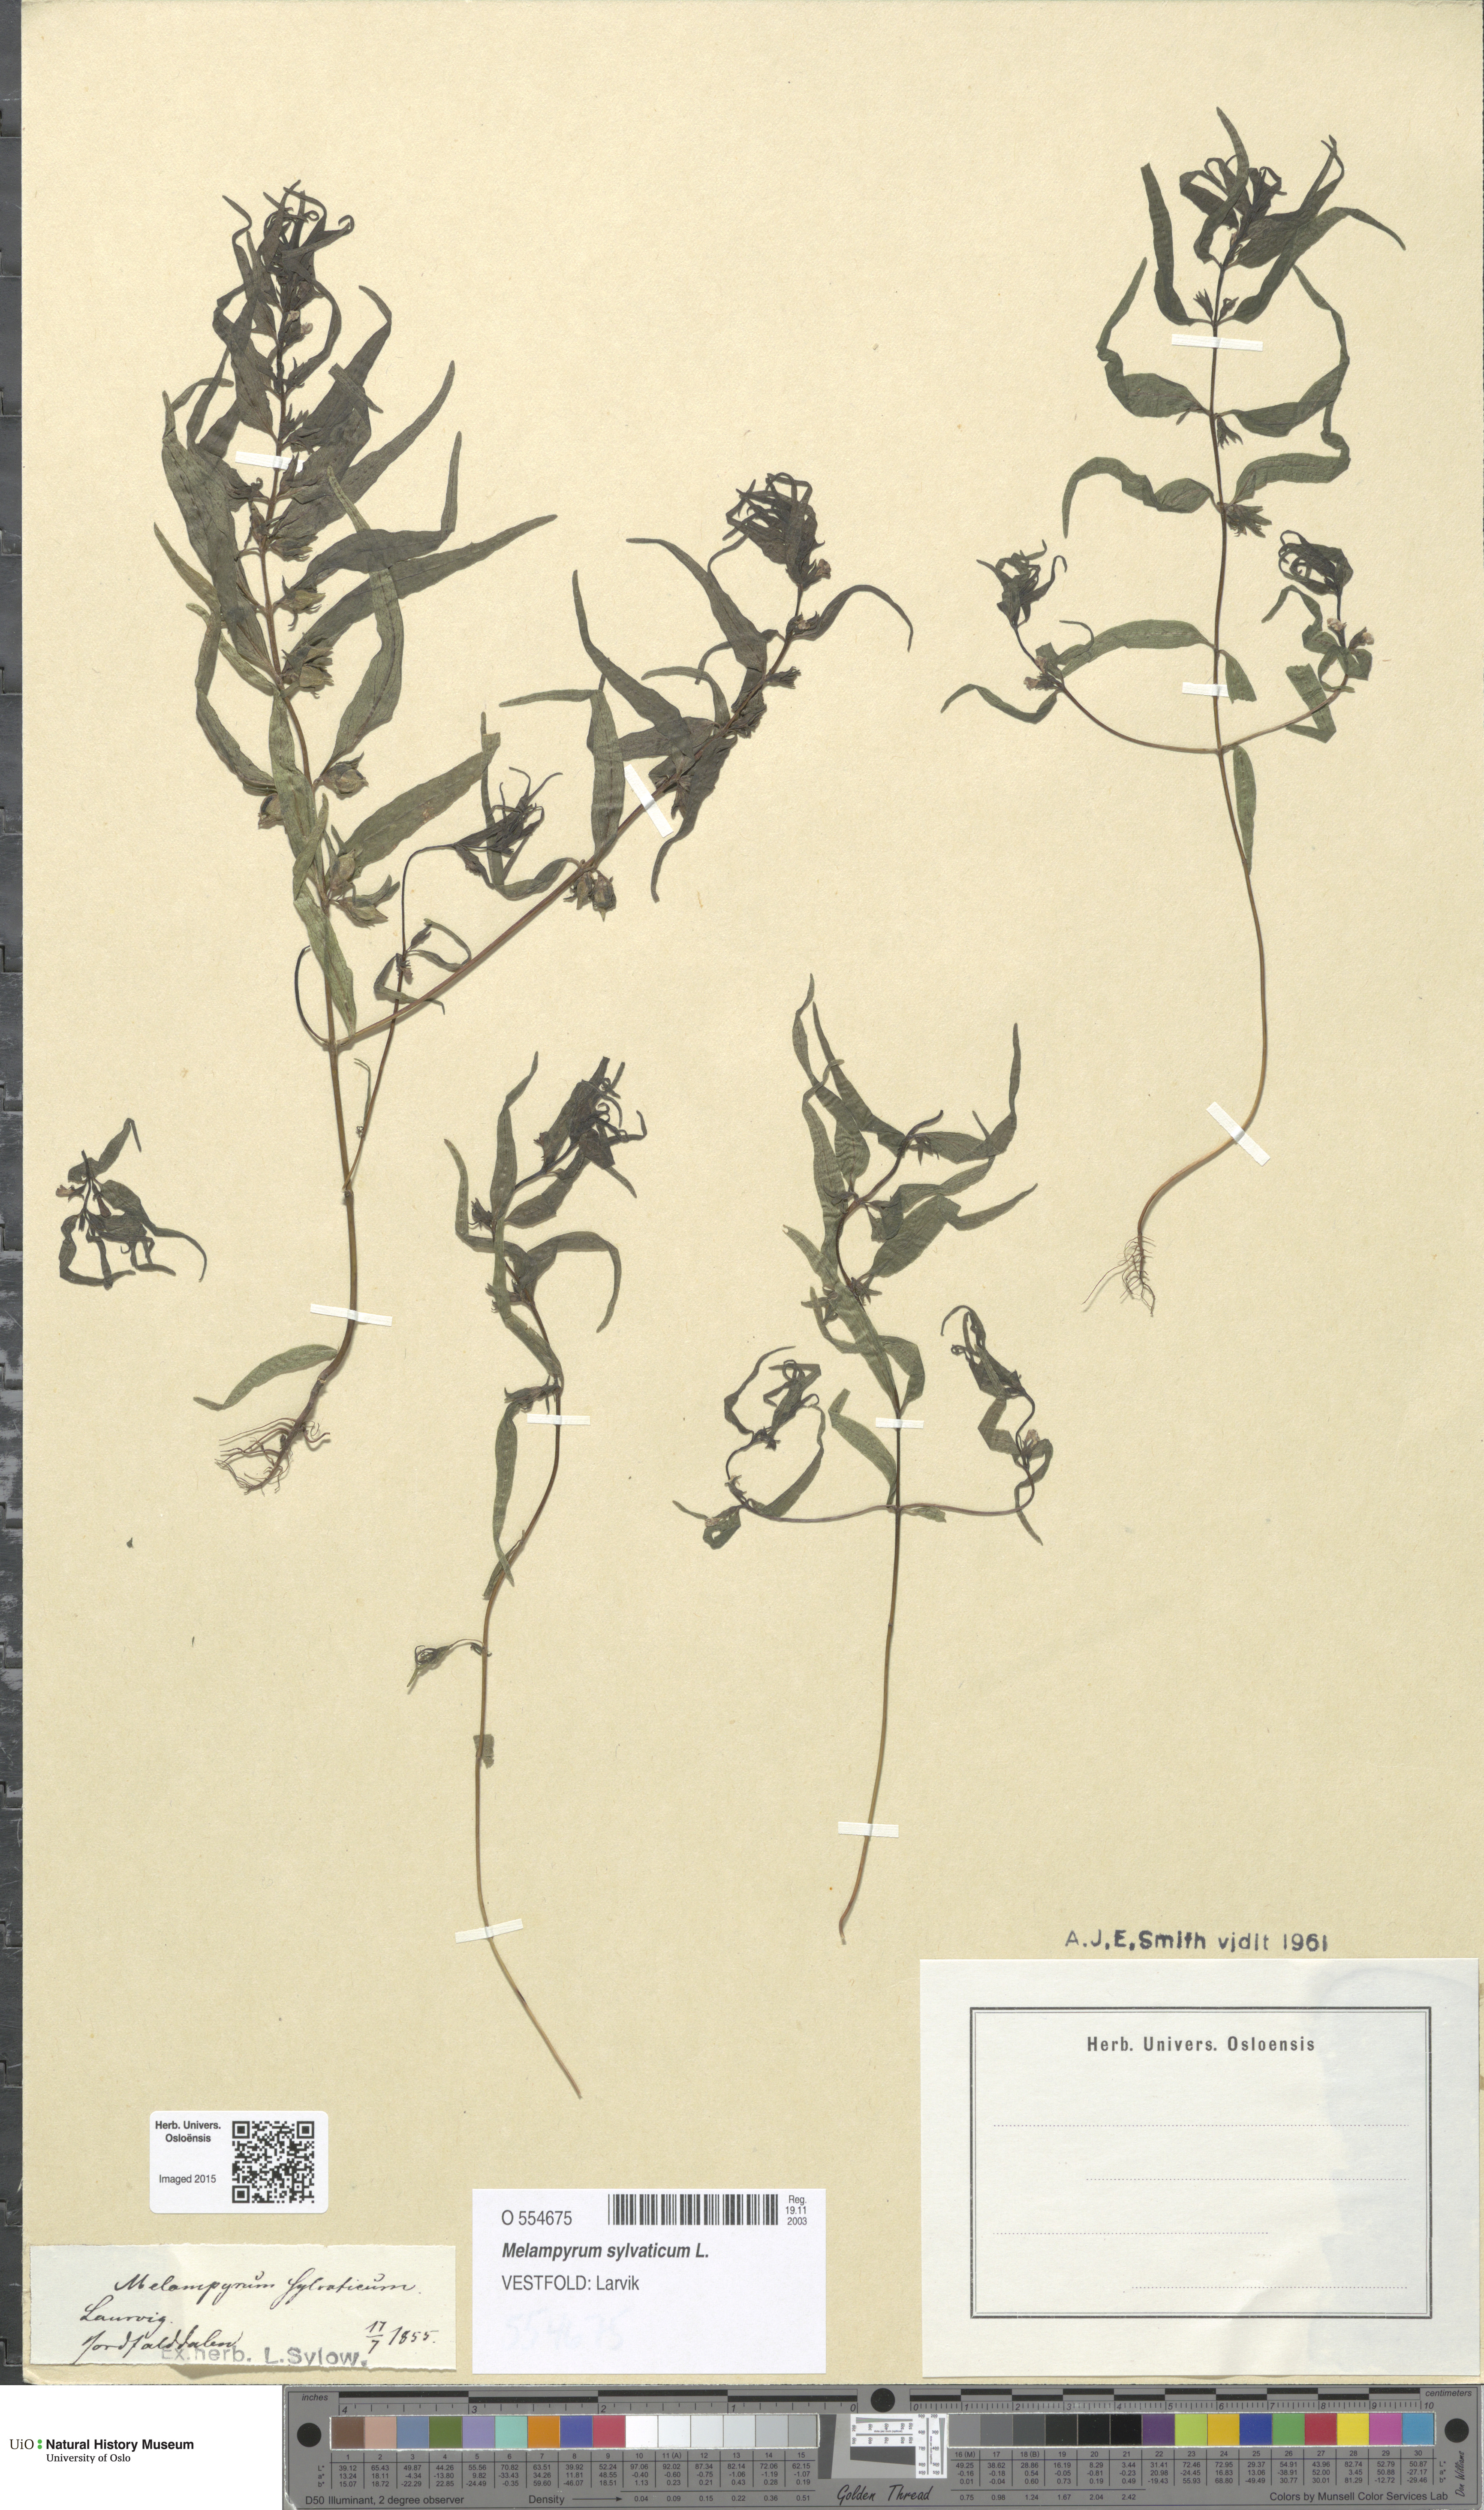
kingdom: Plantae
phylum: Tracheophyta
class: Magnoliopsida
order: Lamiales
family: Orobanchaceae
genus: Melampyrum
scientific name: Melampyrum sylvaticum
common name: Small cow-wheat
